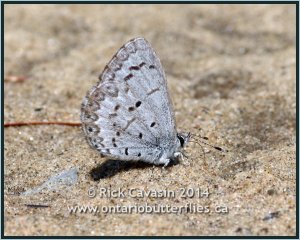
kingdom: Animalia
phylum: Arthropoda
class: Insecta
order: Lepidoptera
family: Lycaenidae
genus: Celastrina
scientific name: Celastrina lucia
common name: Northern Spring Azure
